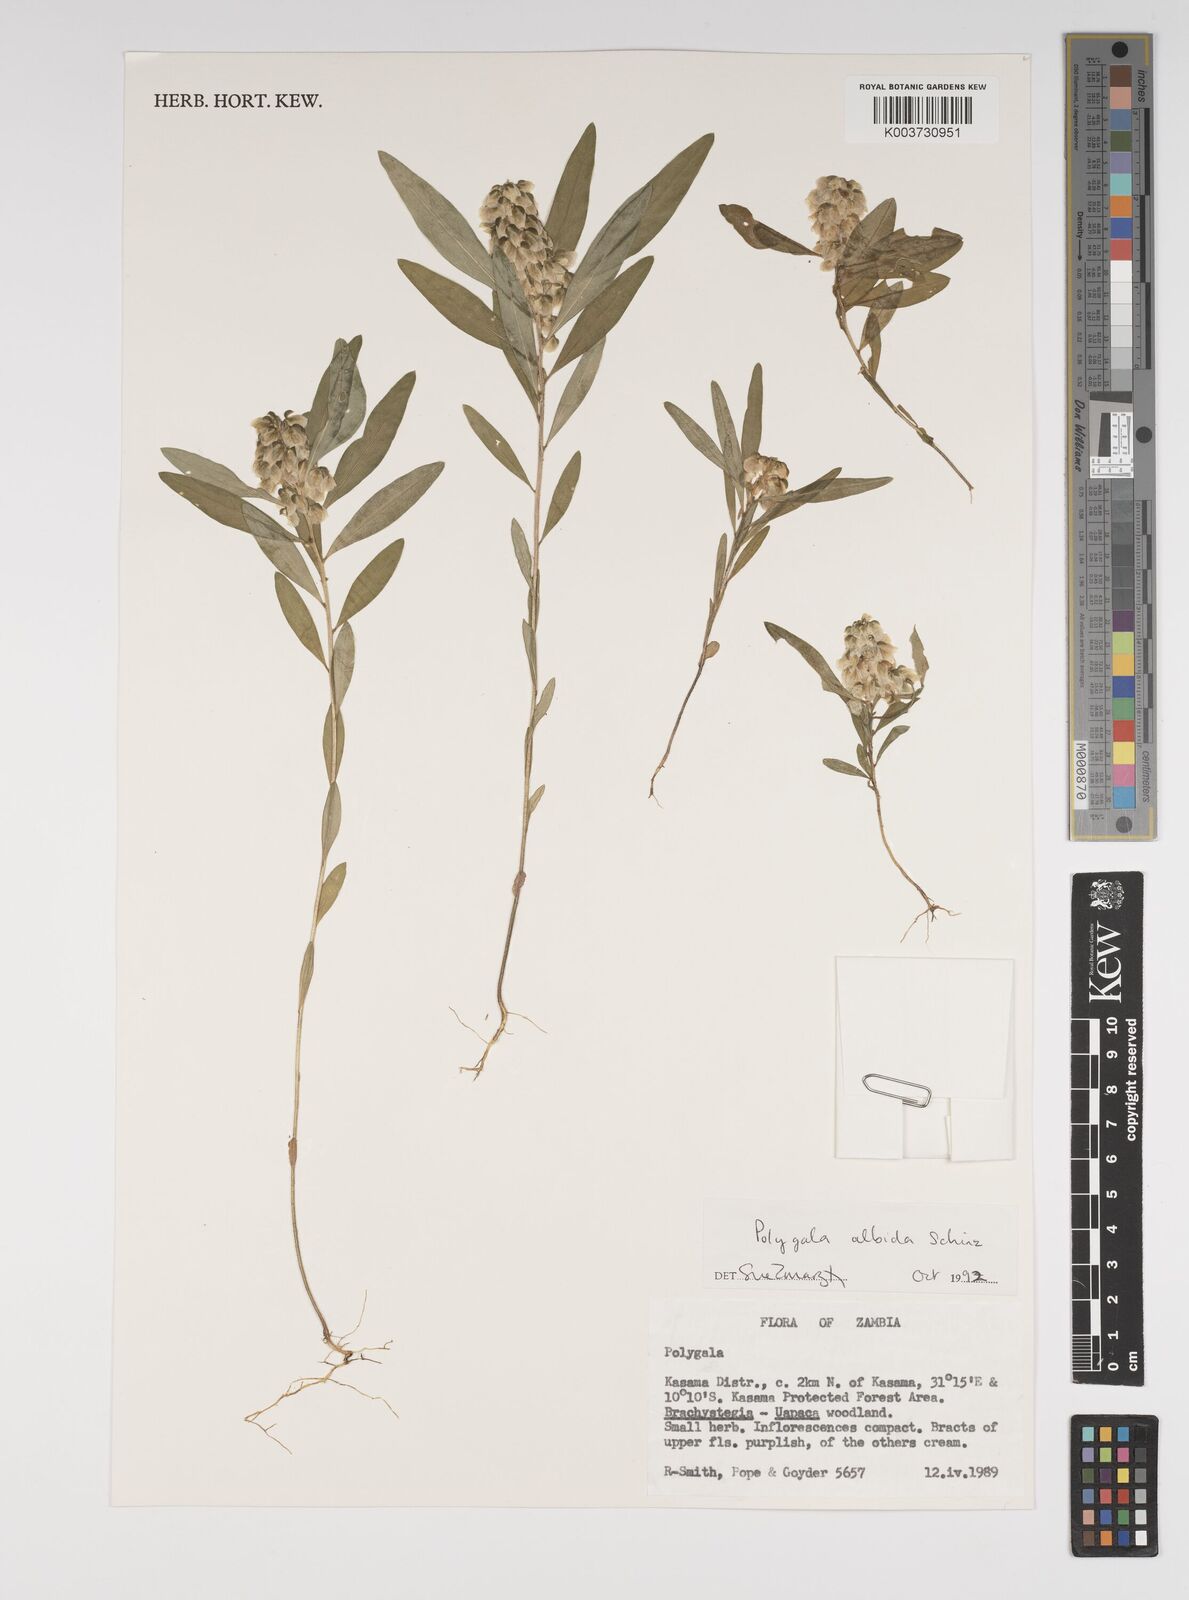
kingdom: Plantae
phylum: Tracheophyta
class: Magnoliopsida
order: Fabales
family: Polygalaceae
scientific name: Polygalaceae
